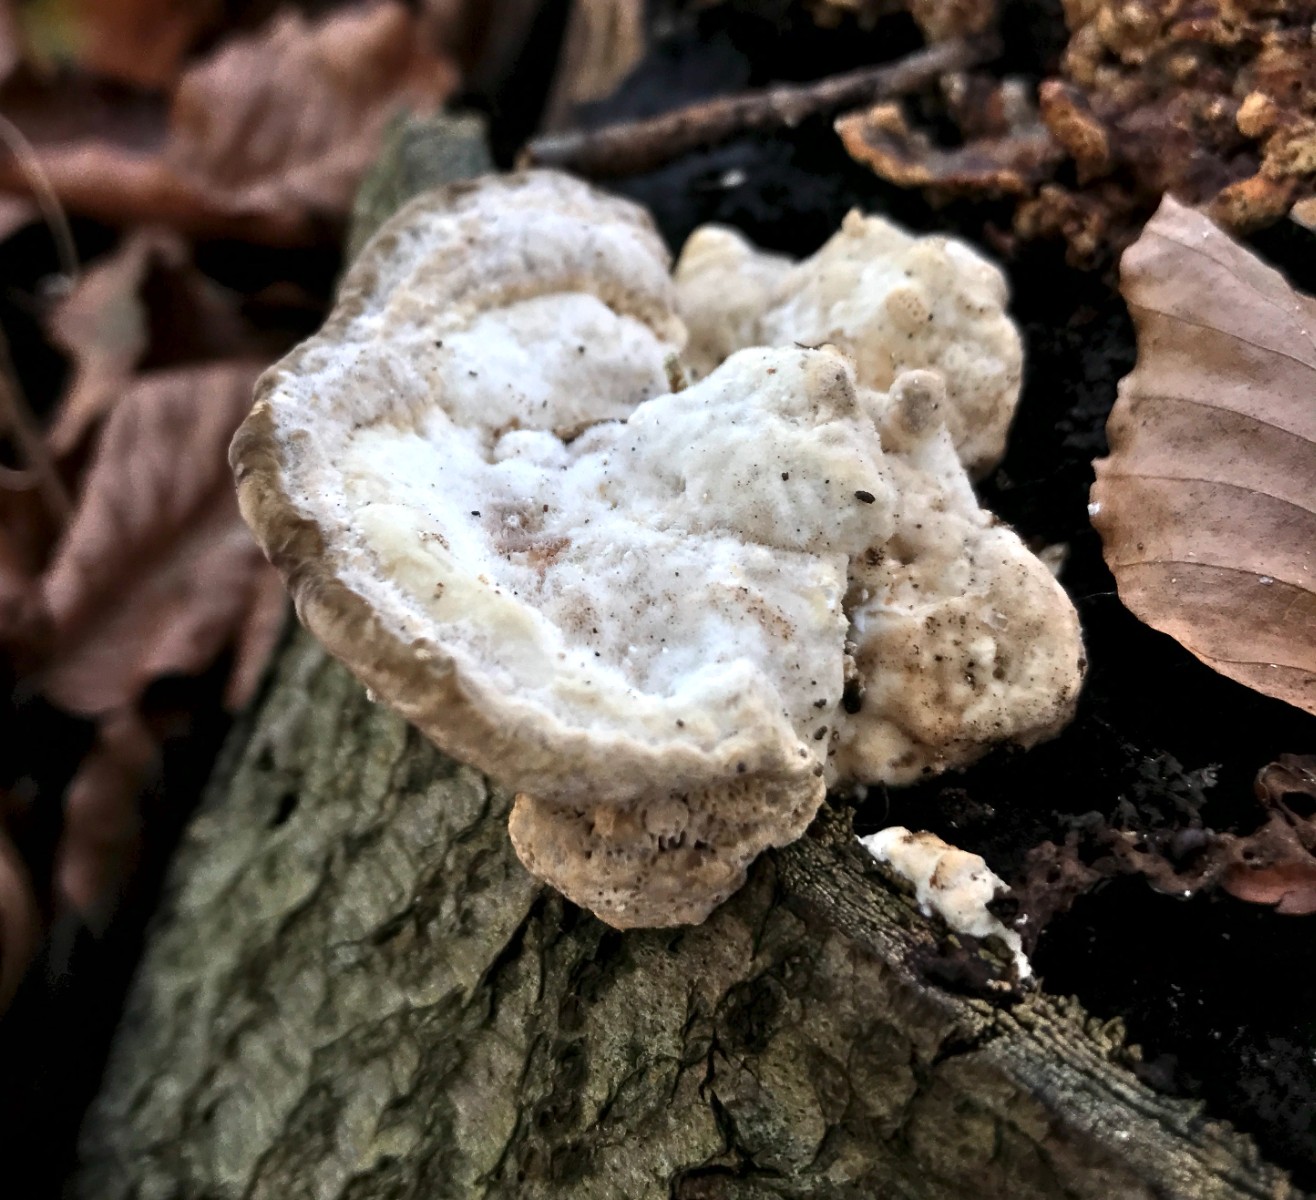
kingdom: Fungi
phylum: Basidiomycota
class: Agaricomycetes
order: Polyporales
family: Polyporaceae
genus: Trametes
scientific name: Trametes gibbosa
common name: puklet læderporesvamp
